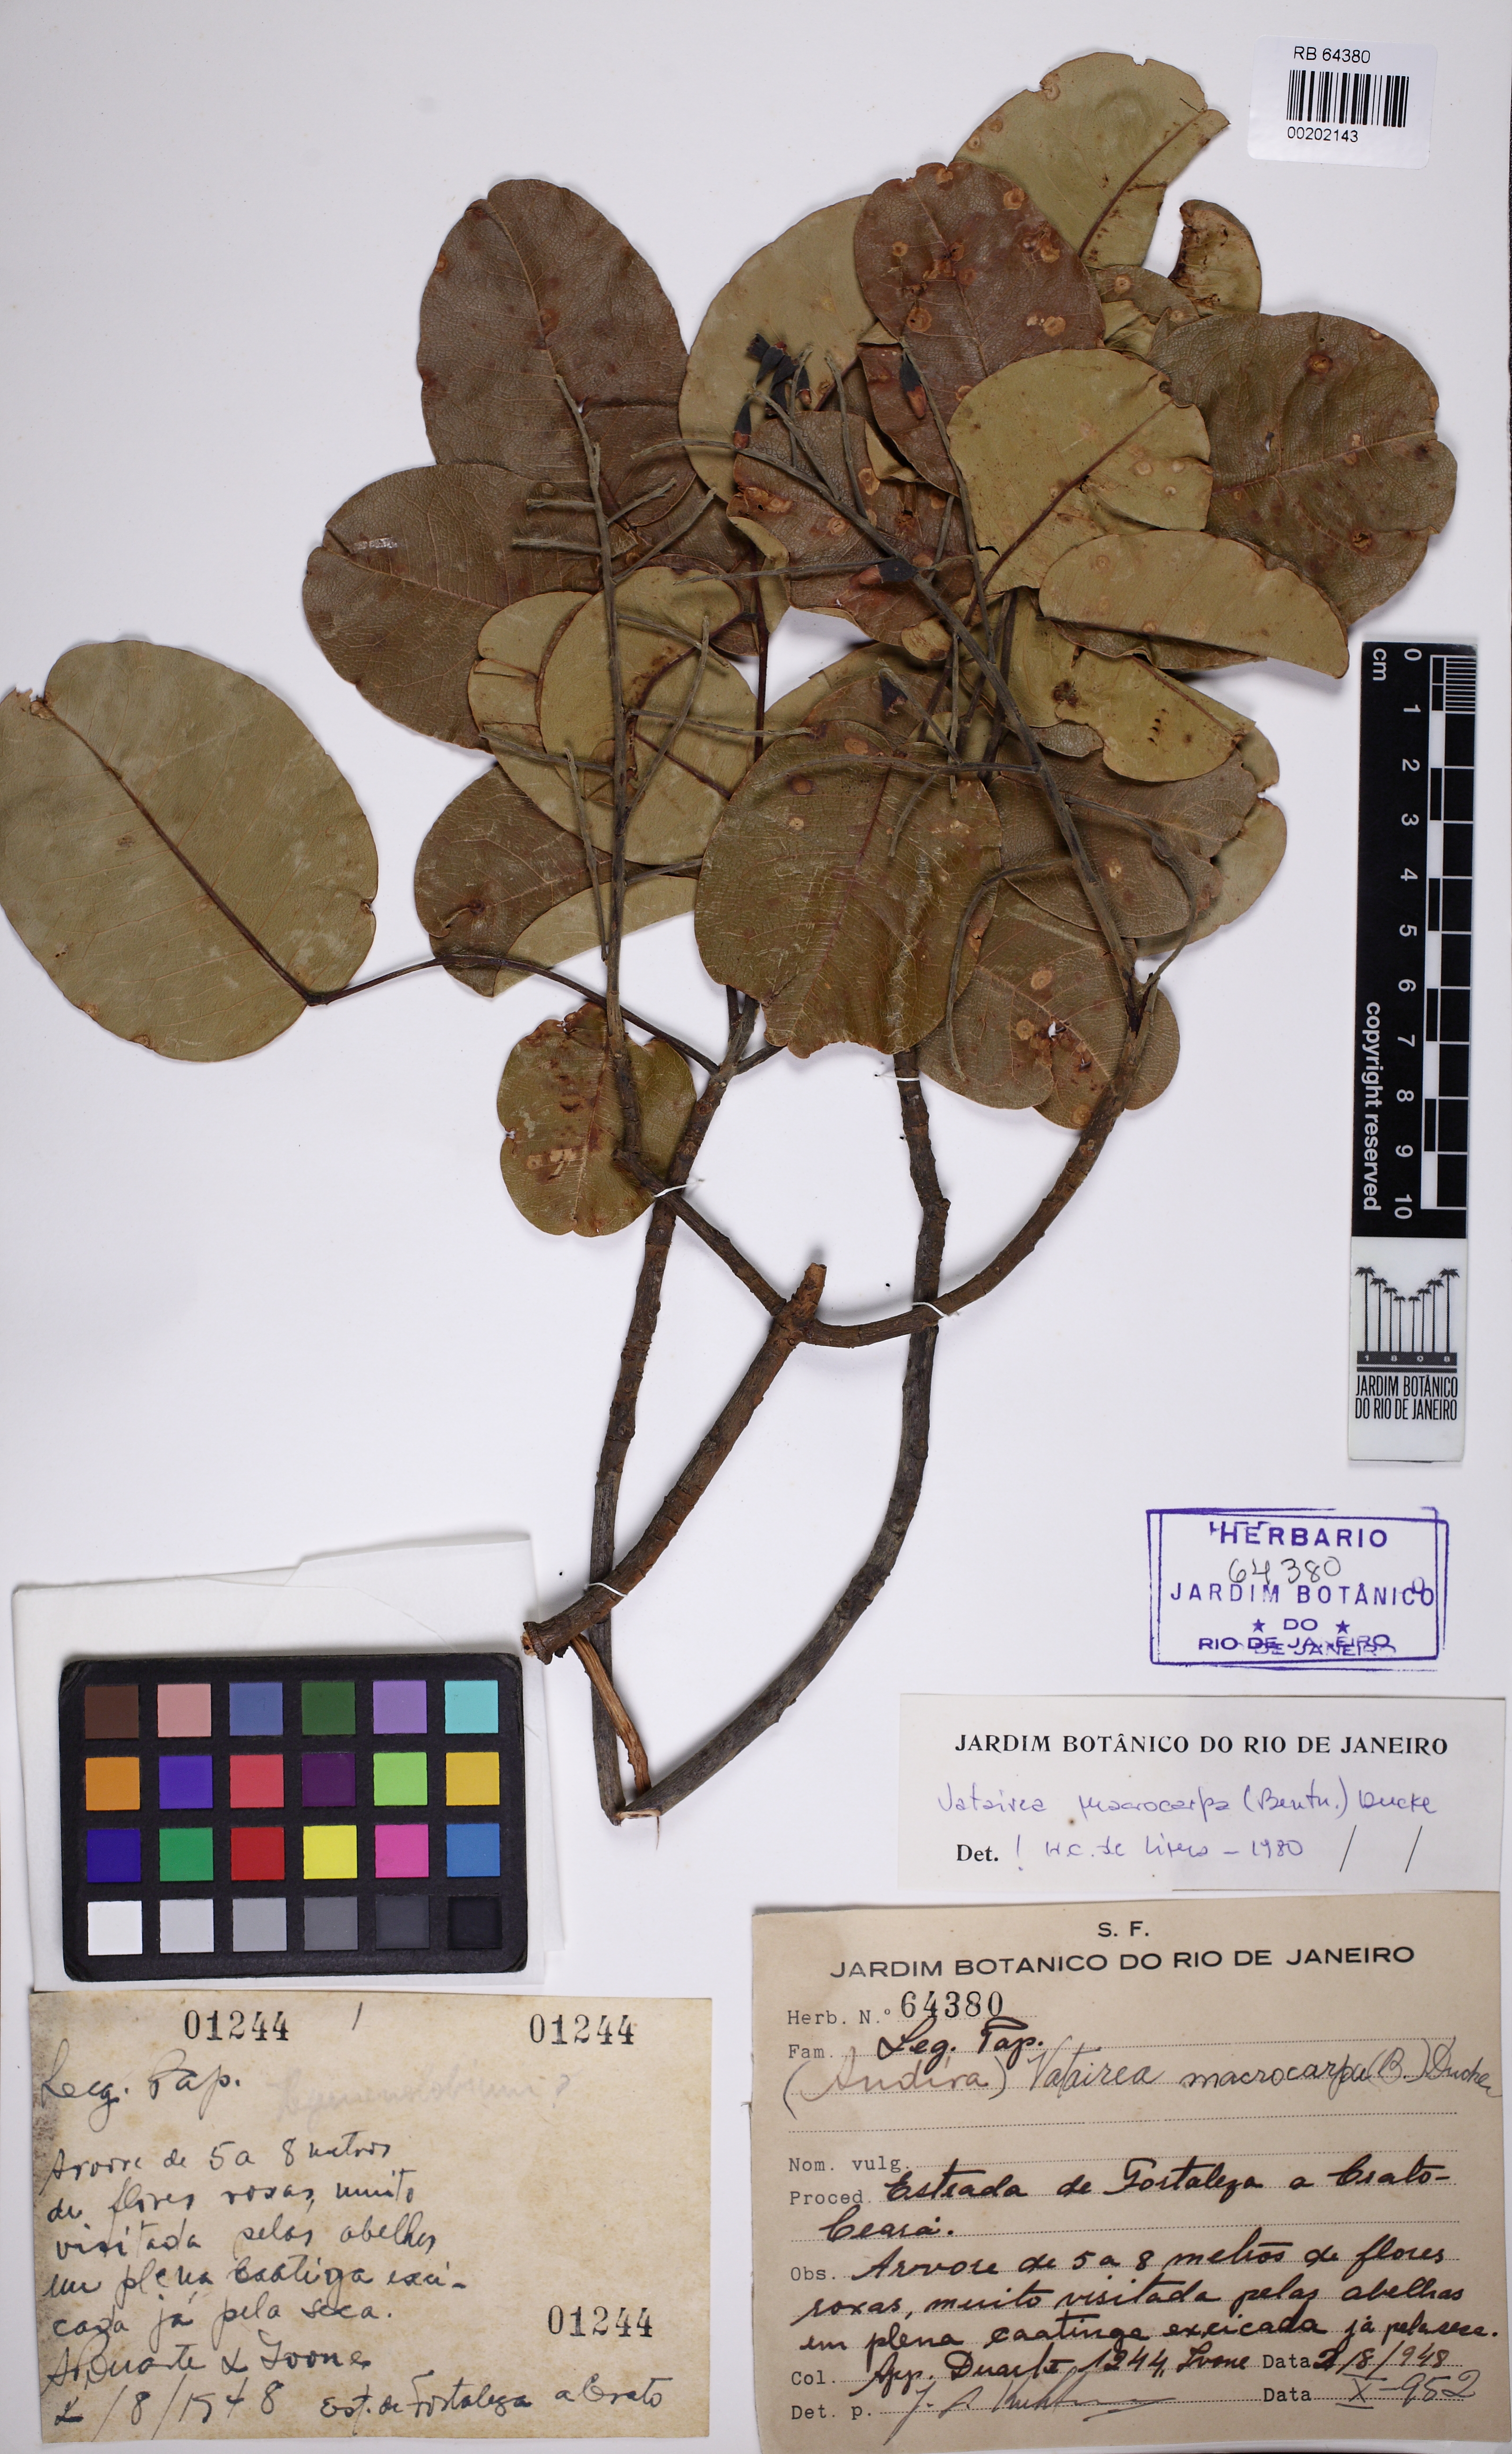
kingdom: Plantae
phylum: Tracheophyta
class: Magnoliopsida
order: Fabales
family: Fabaceae
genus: Vatairea
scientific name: Vatairea macrocarpa
